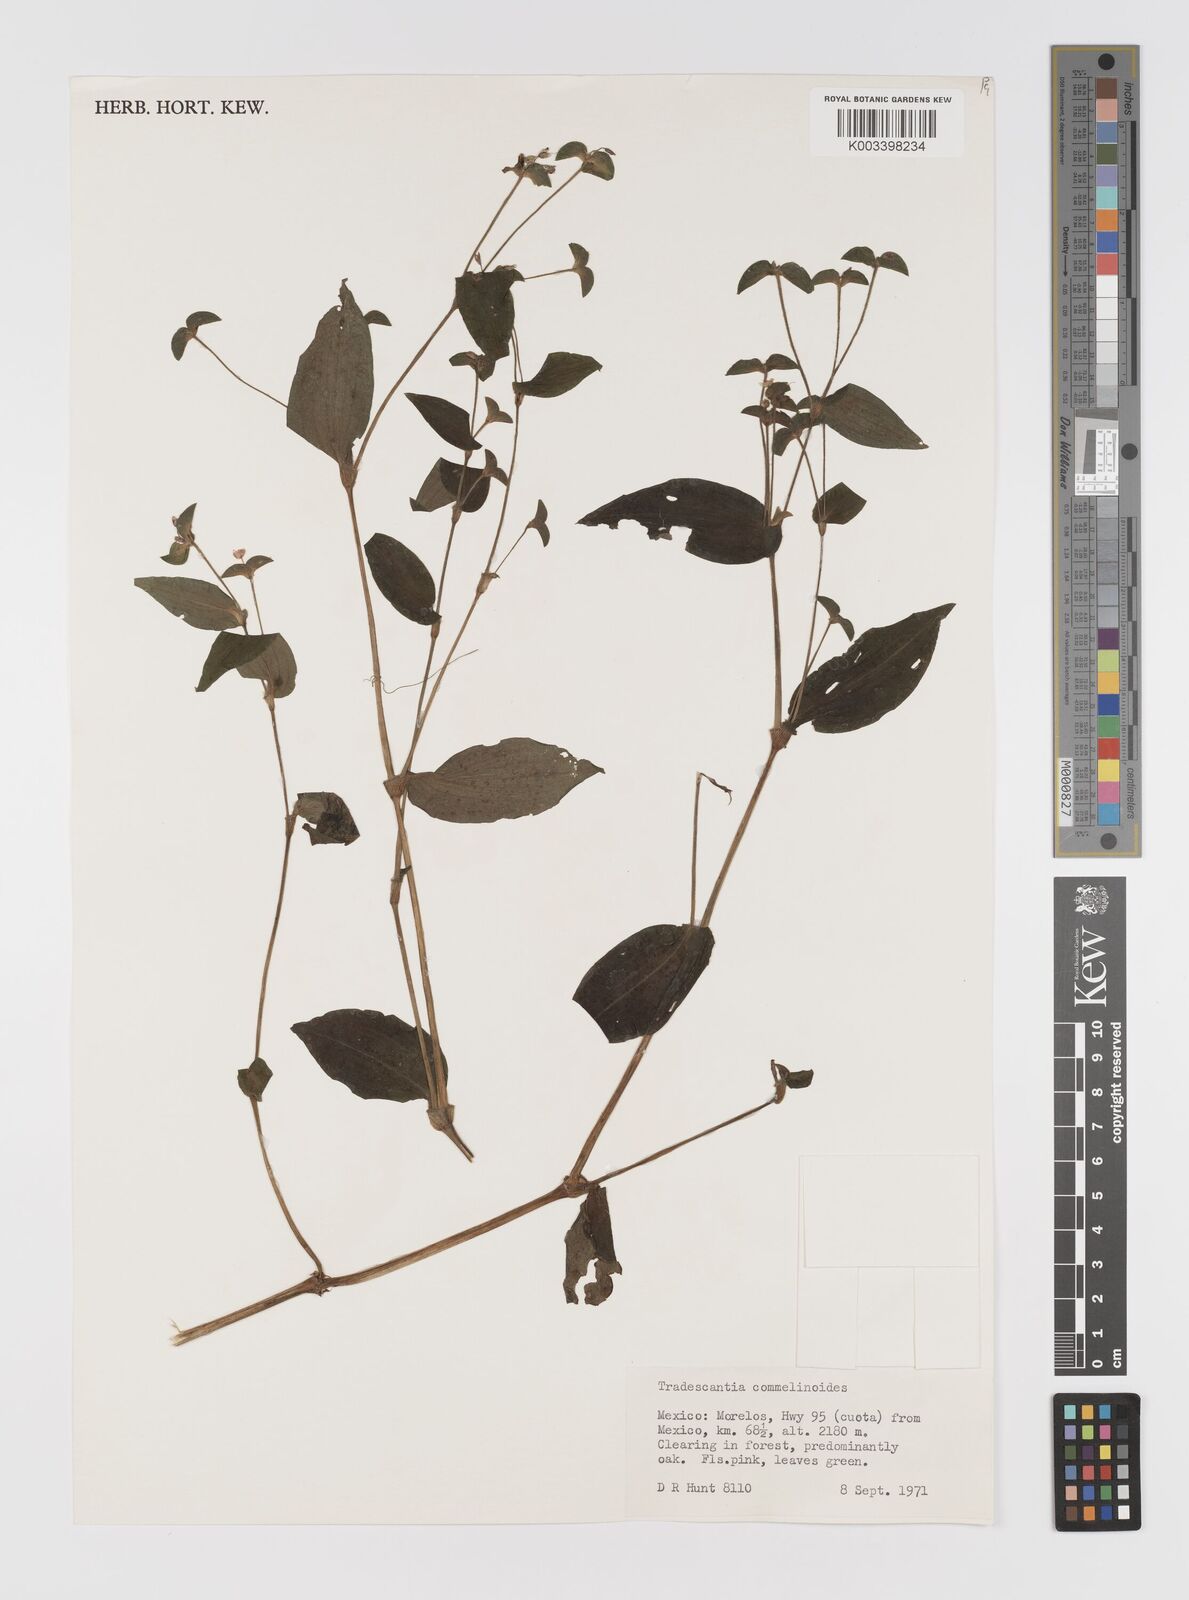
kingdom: Plantae
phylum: Tracheophyta
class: Liliopsida
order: Commelinales
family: Commelinaceae
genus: Tradescantia
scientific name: Tradescantia commelinoides
